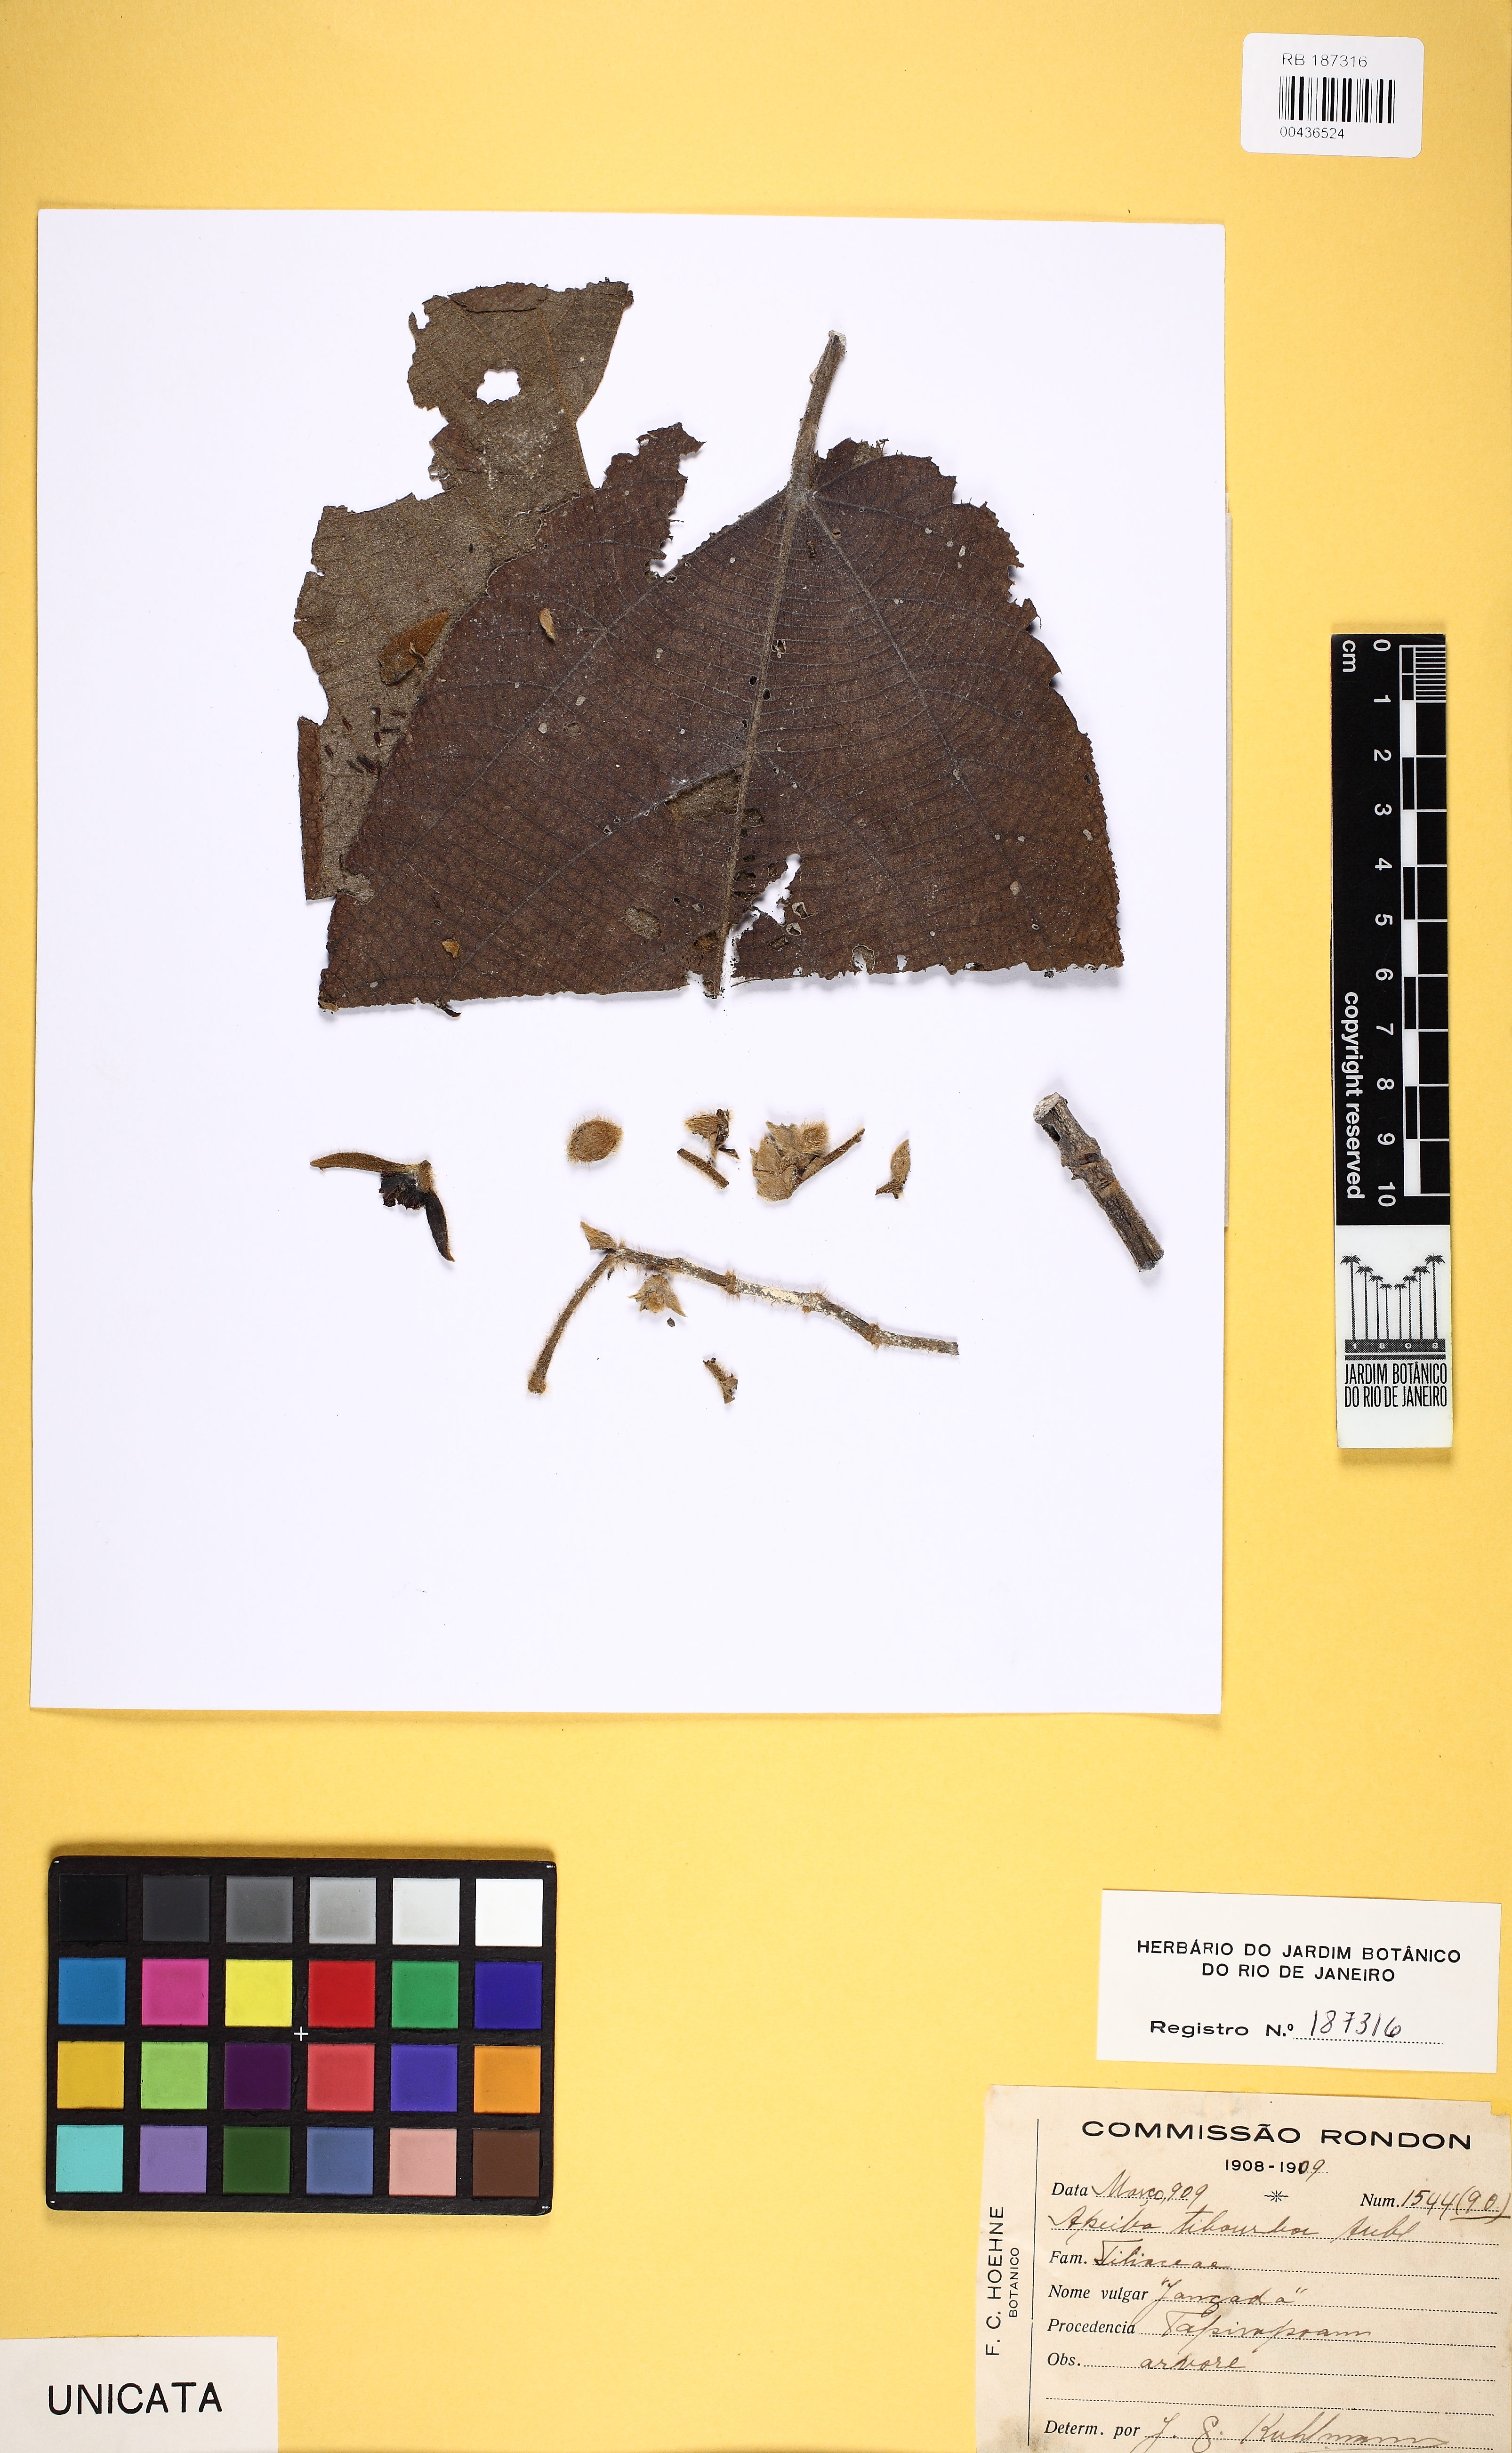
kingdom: Plantae
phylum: Tracheophyta
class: Magnoliopsida
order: Malvales
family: Malvaceae
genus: Apeiba
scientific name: Apeiba tibourbou
